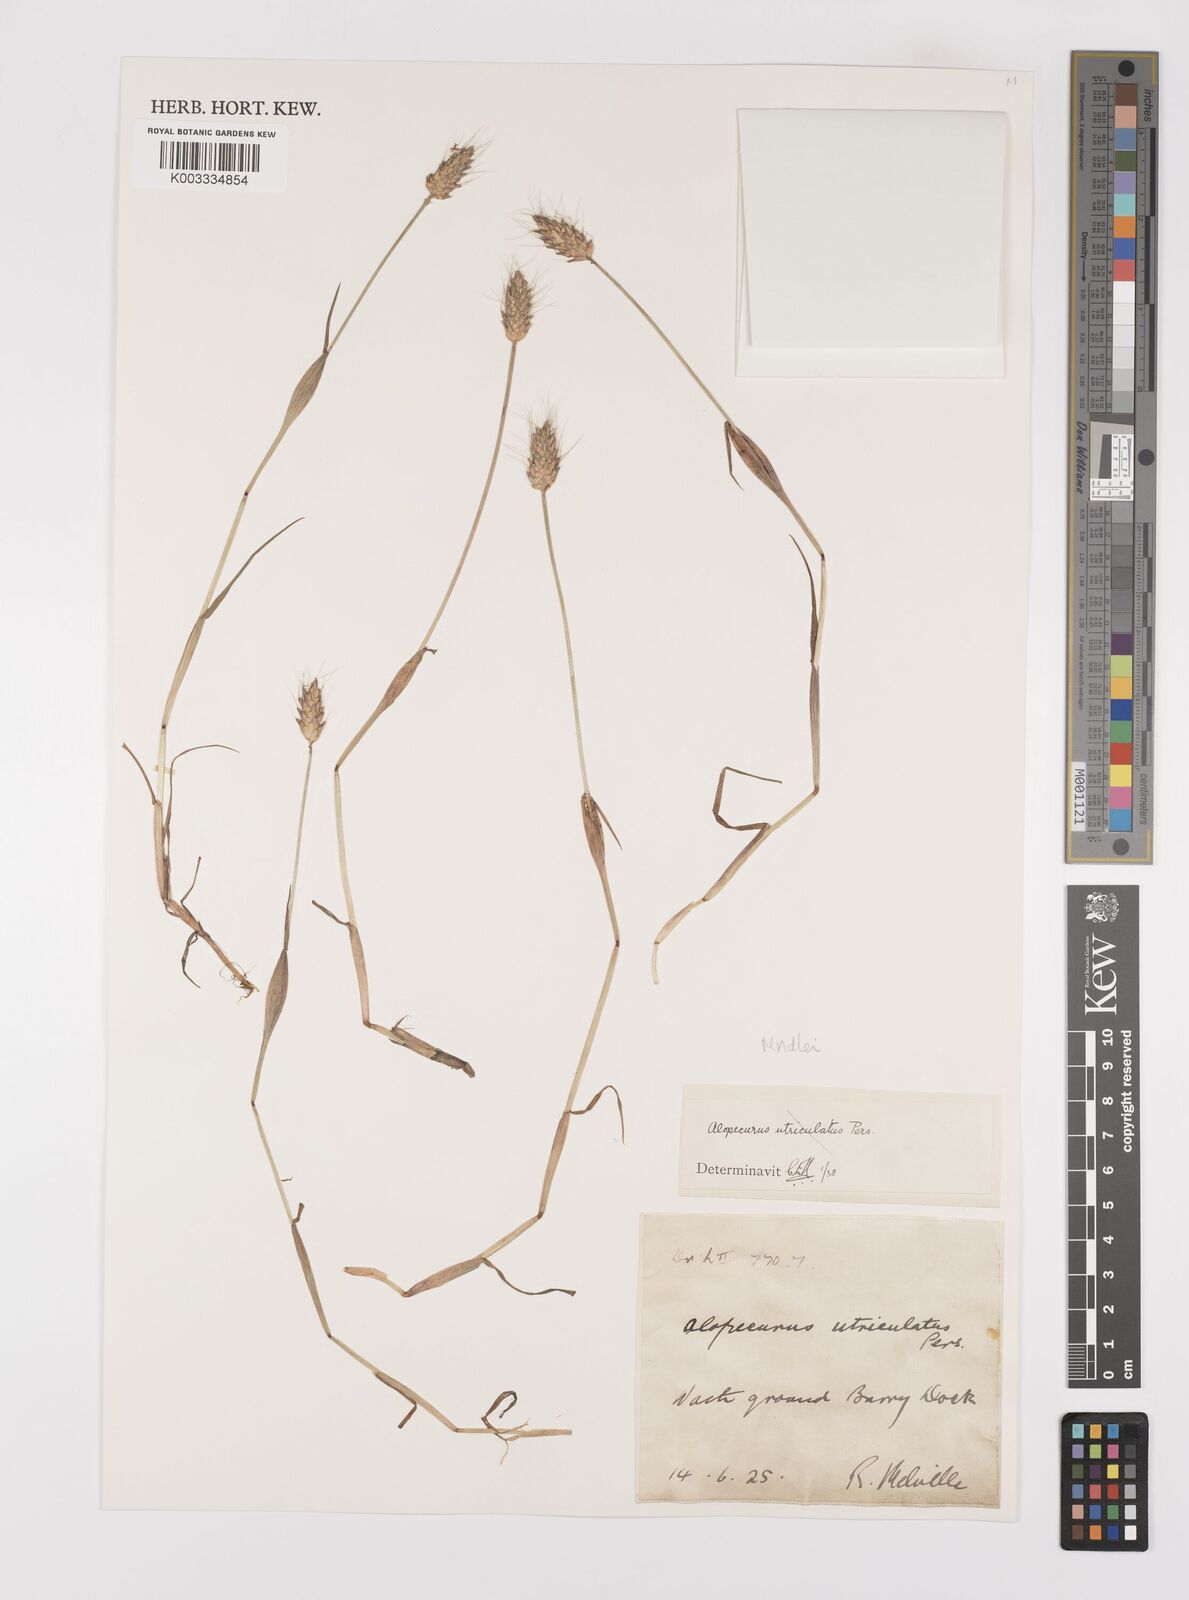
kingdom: Plantae
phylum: Tracheophyta
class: Liliopsida
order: Poales
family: Poaceae
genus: Alopecurus
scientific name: Alopecurus rendlei
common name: Rendle's meadow foxtail
